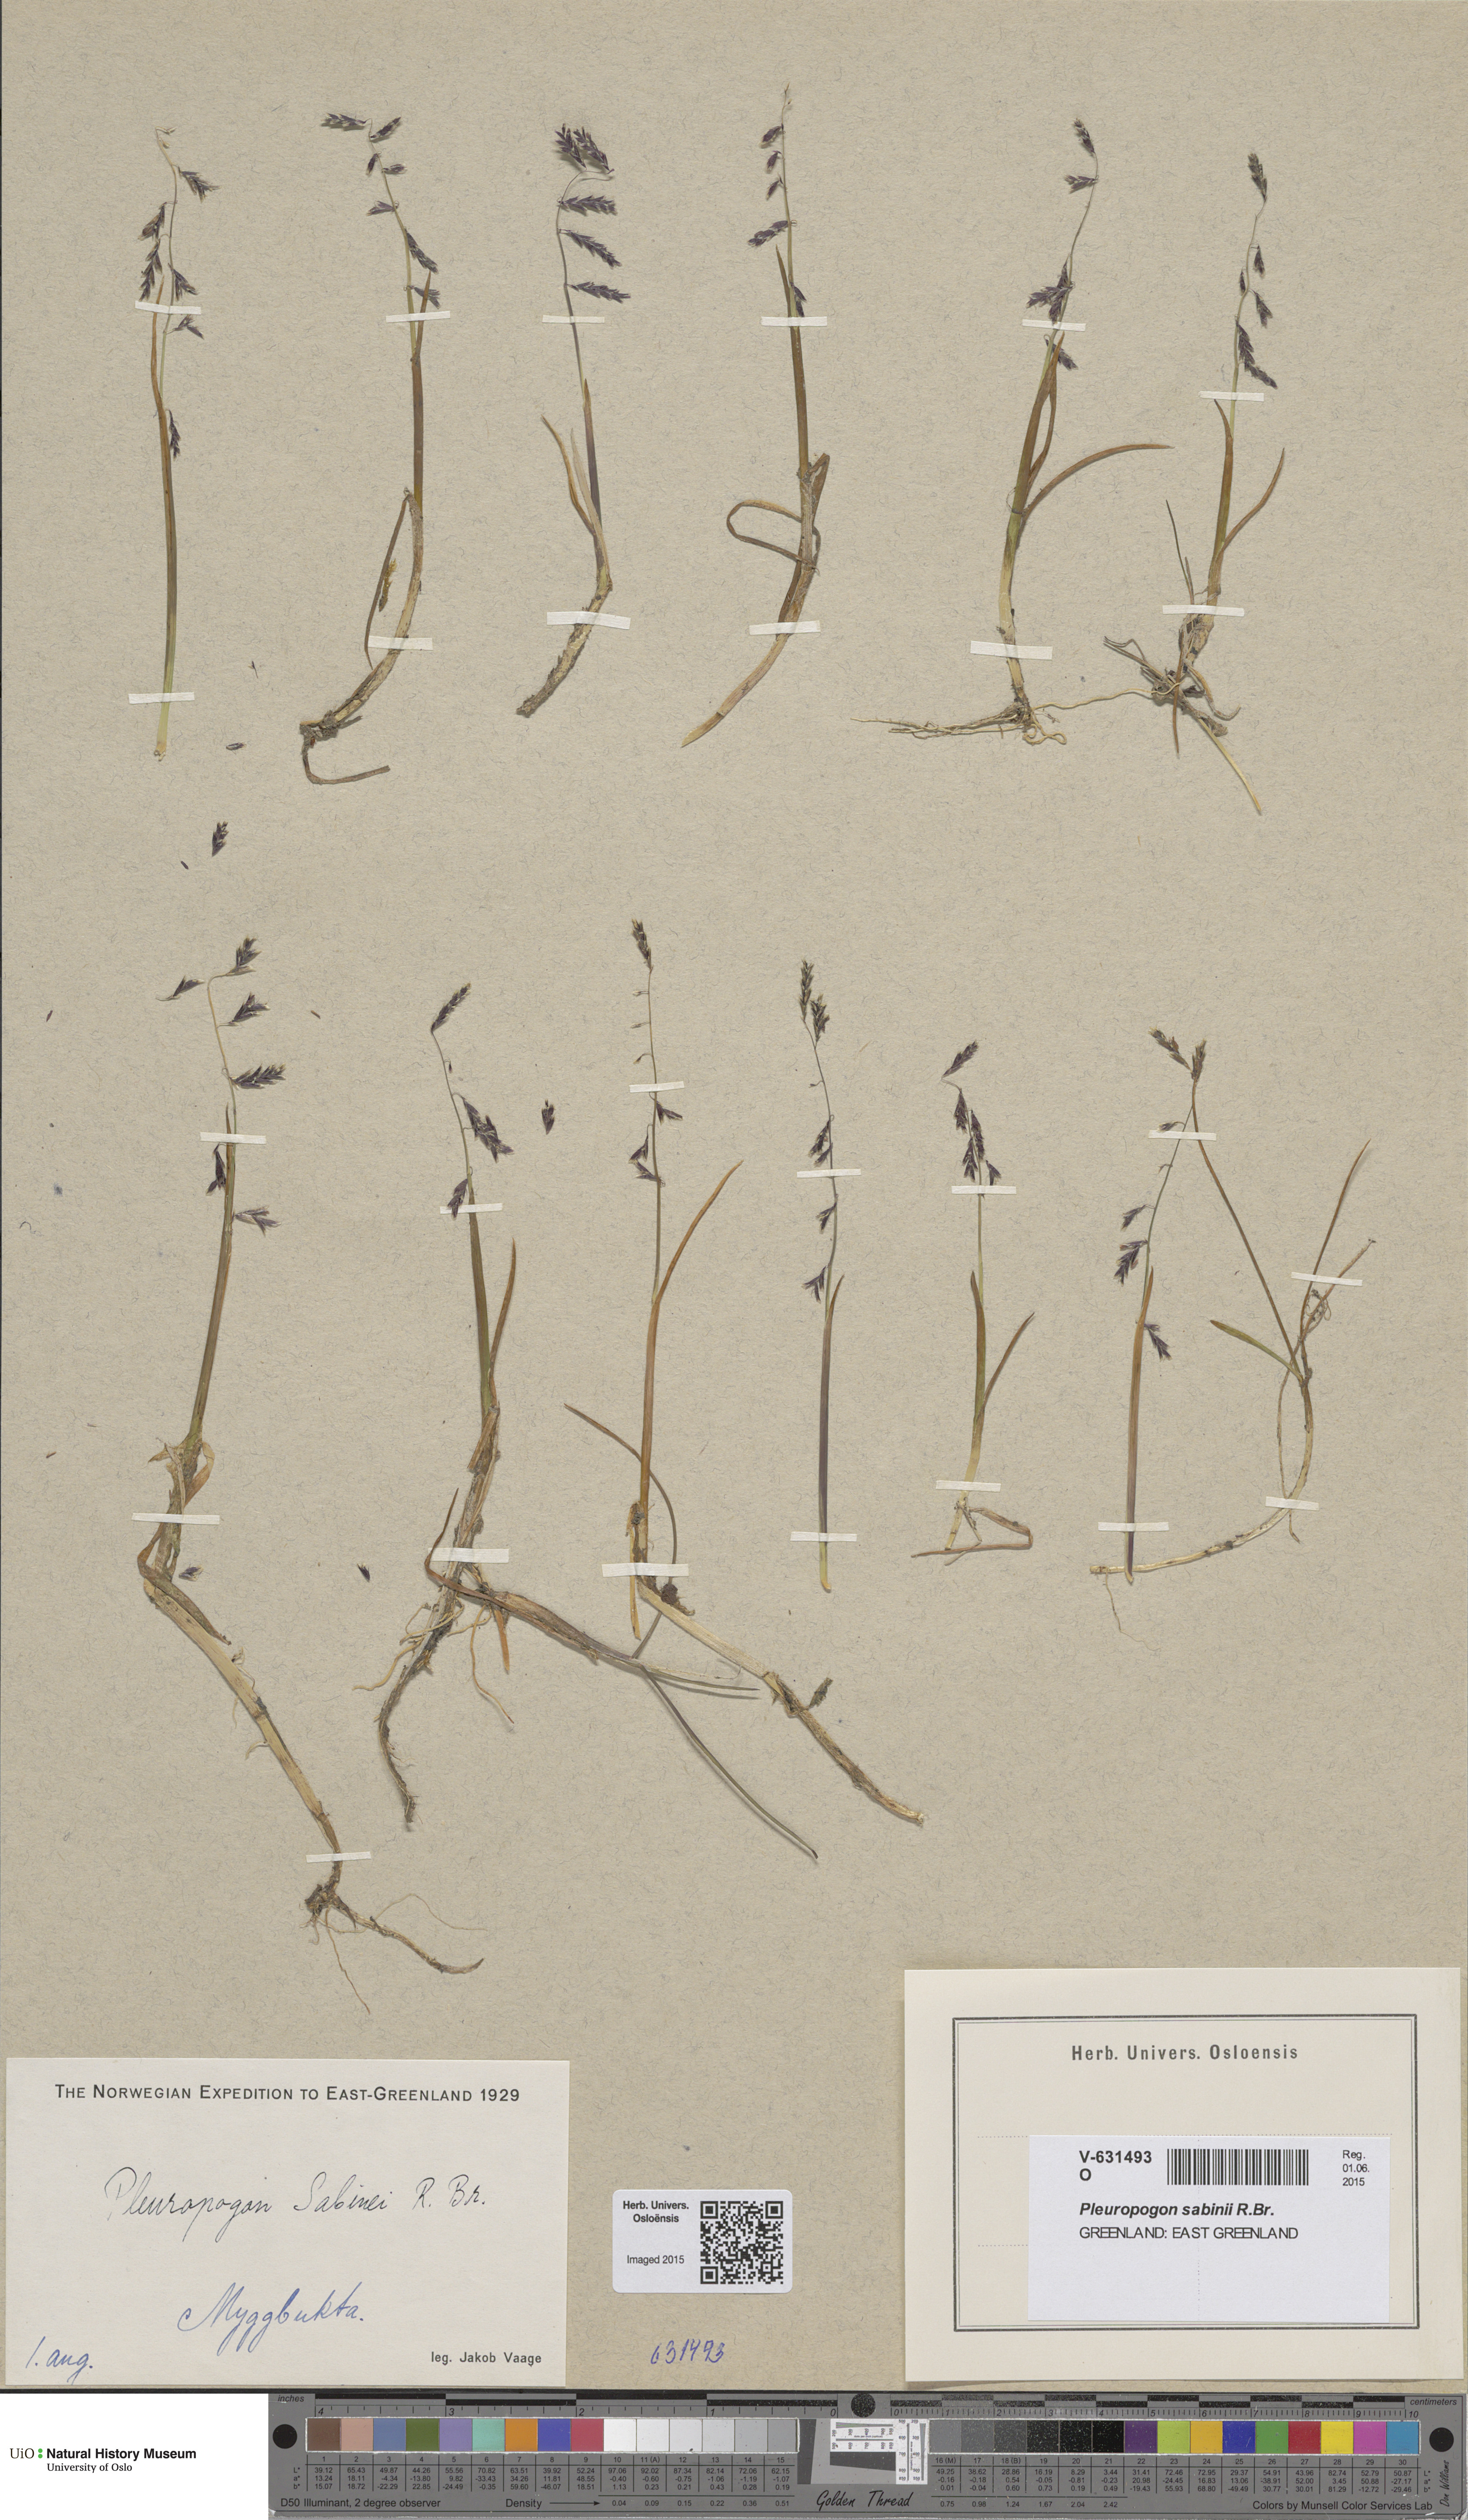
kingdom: Plantae
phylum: Tracheophyta
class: Liliopsida
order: Poales
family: Poaceae
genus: Pleuropogon
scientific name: Pleuropogon sabinei
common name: Sabine's false semaphoregrass
